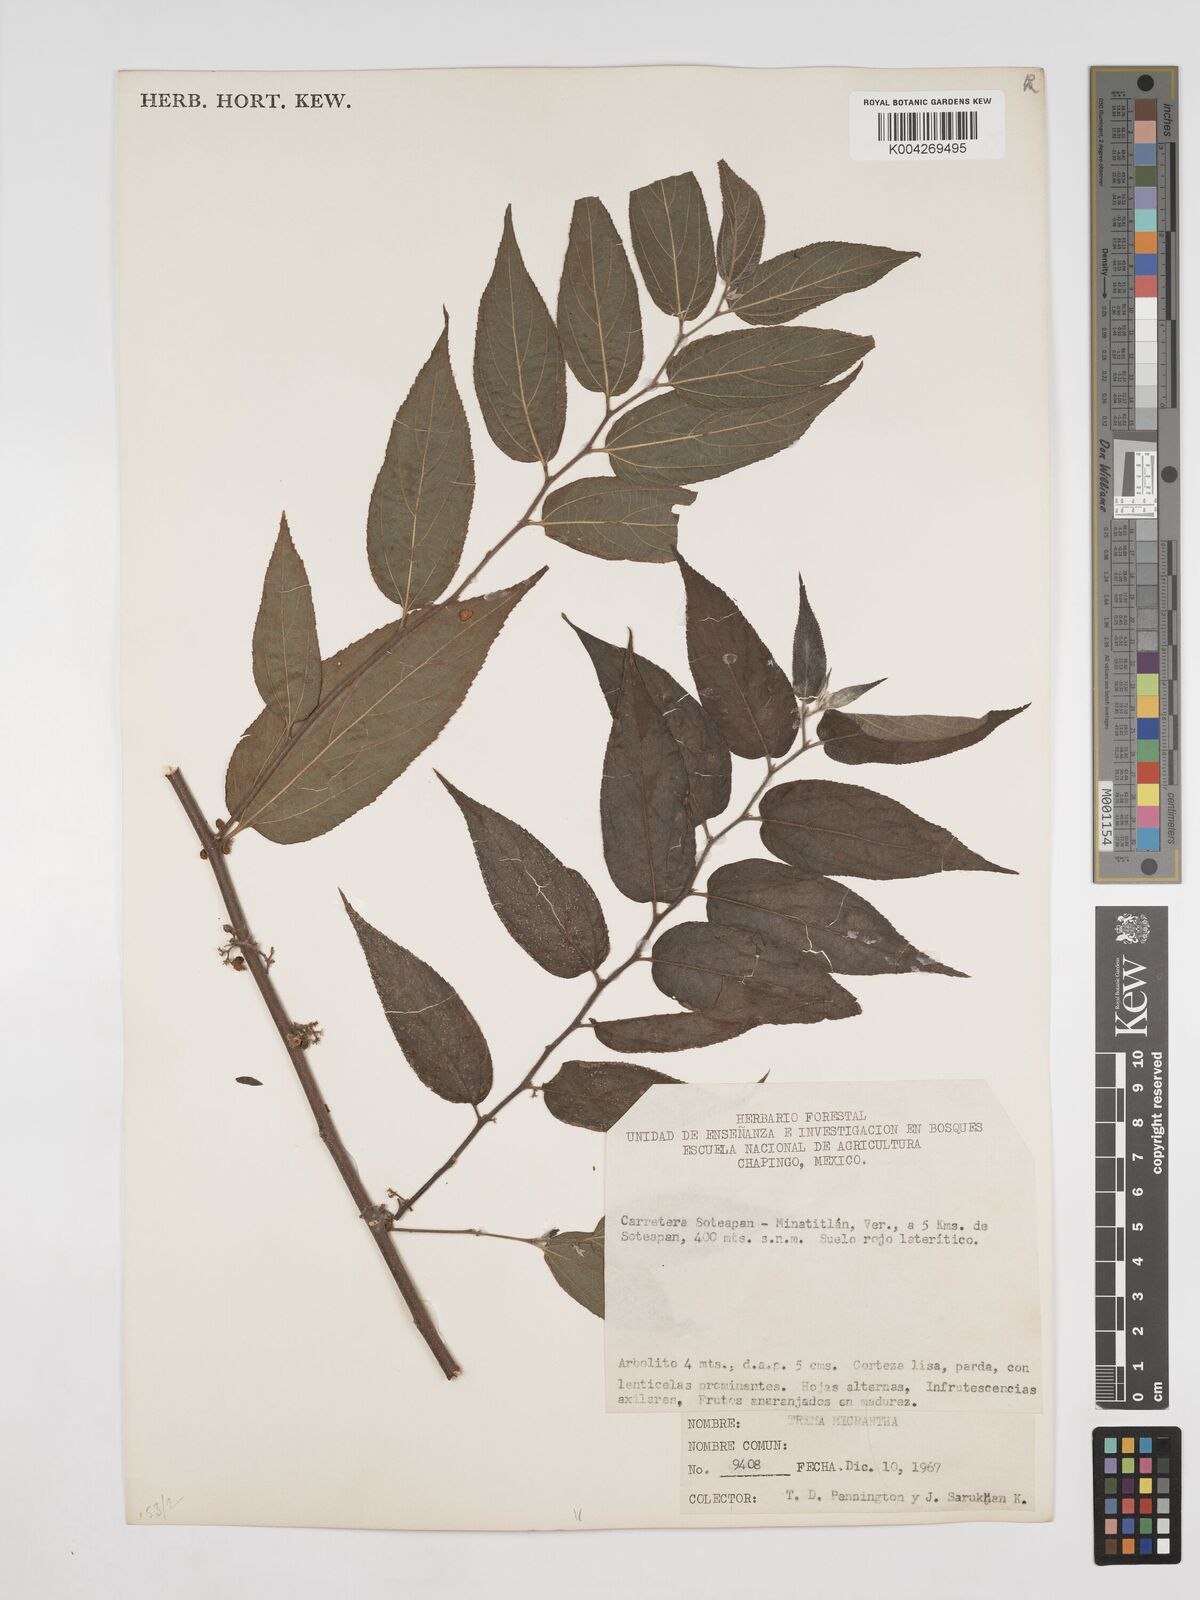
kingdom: Plantae
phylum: Tracheophyta
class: Magnoliopsida
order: Rosales
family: Cannabaceae
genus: Trema
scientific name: Trema micranthum
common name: Jamaican nettletree
